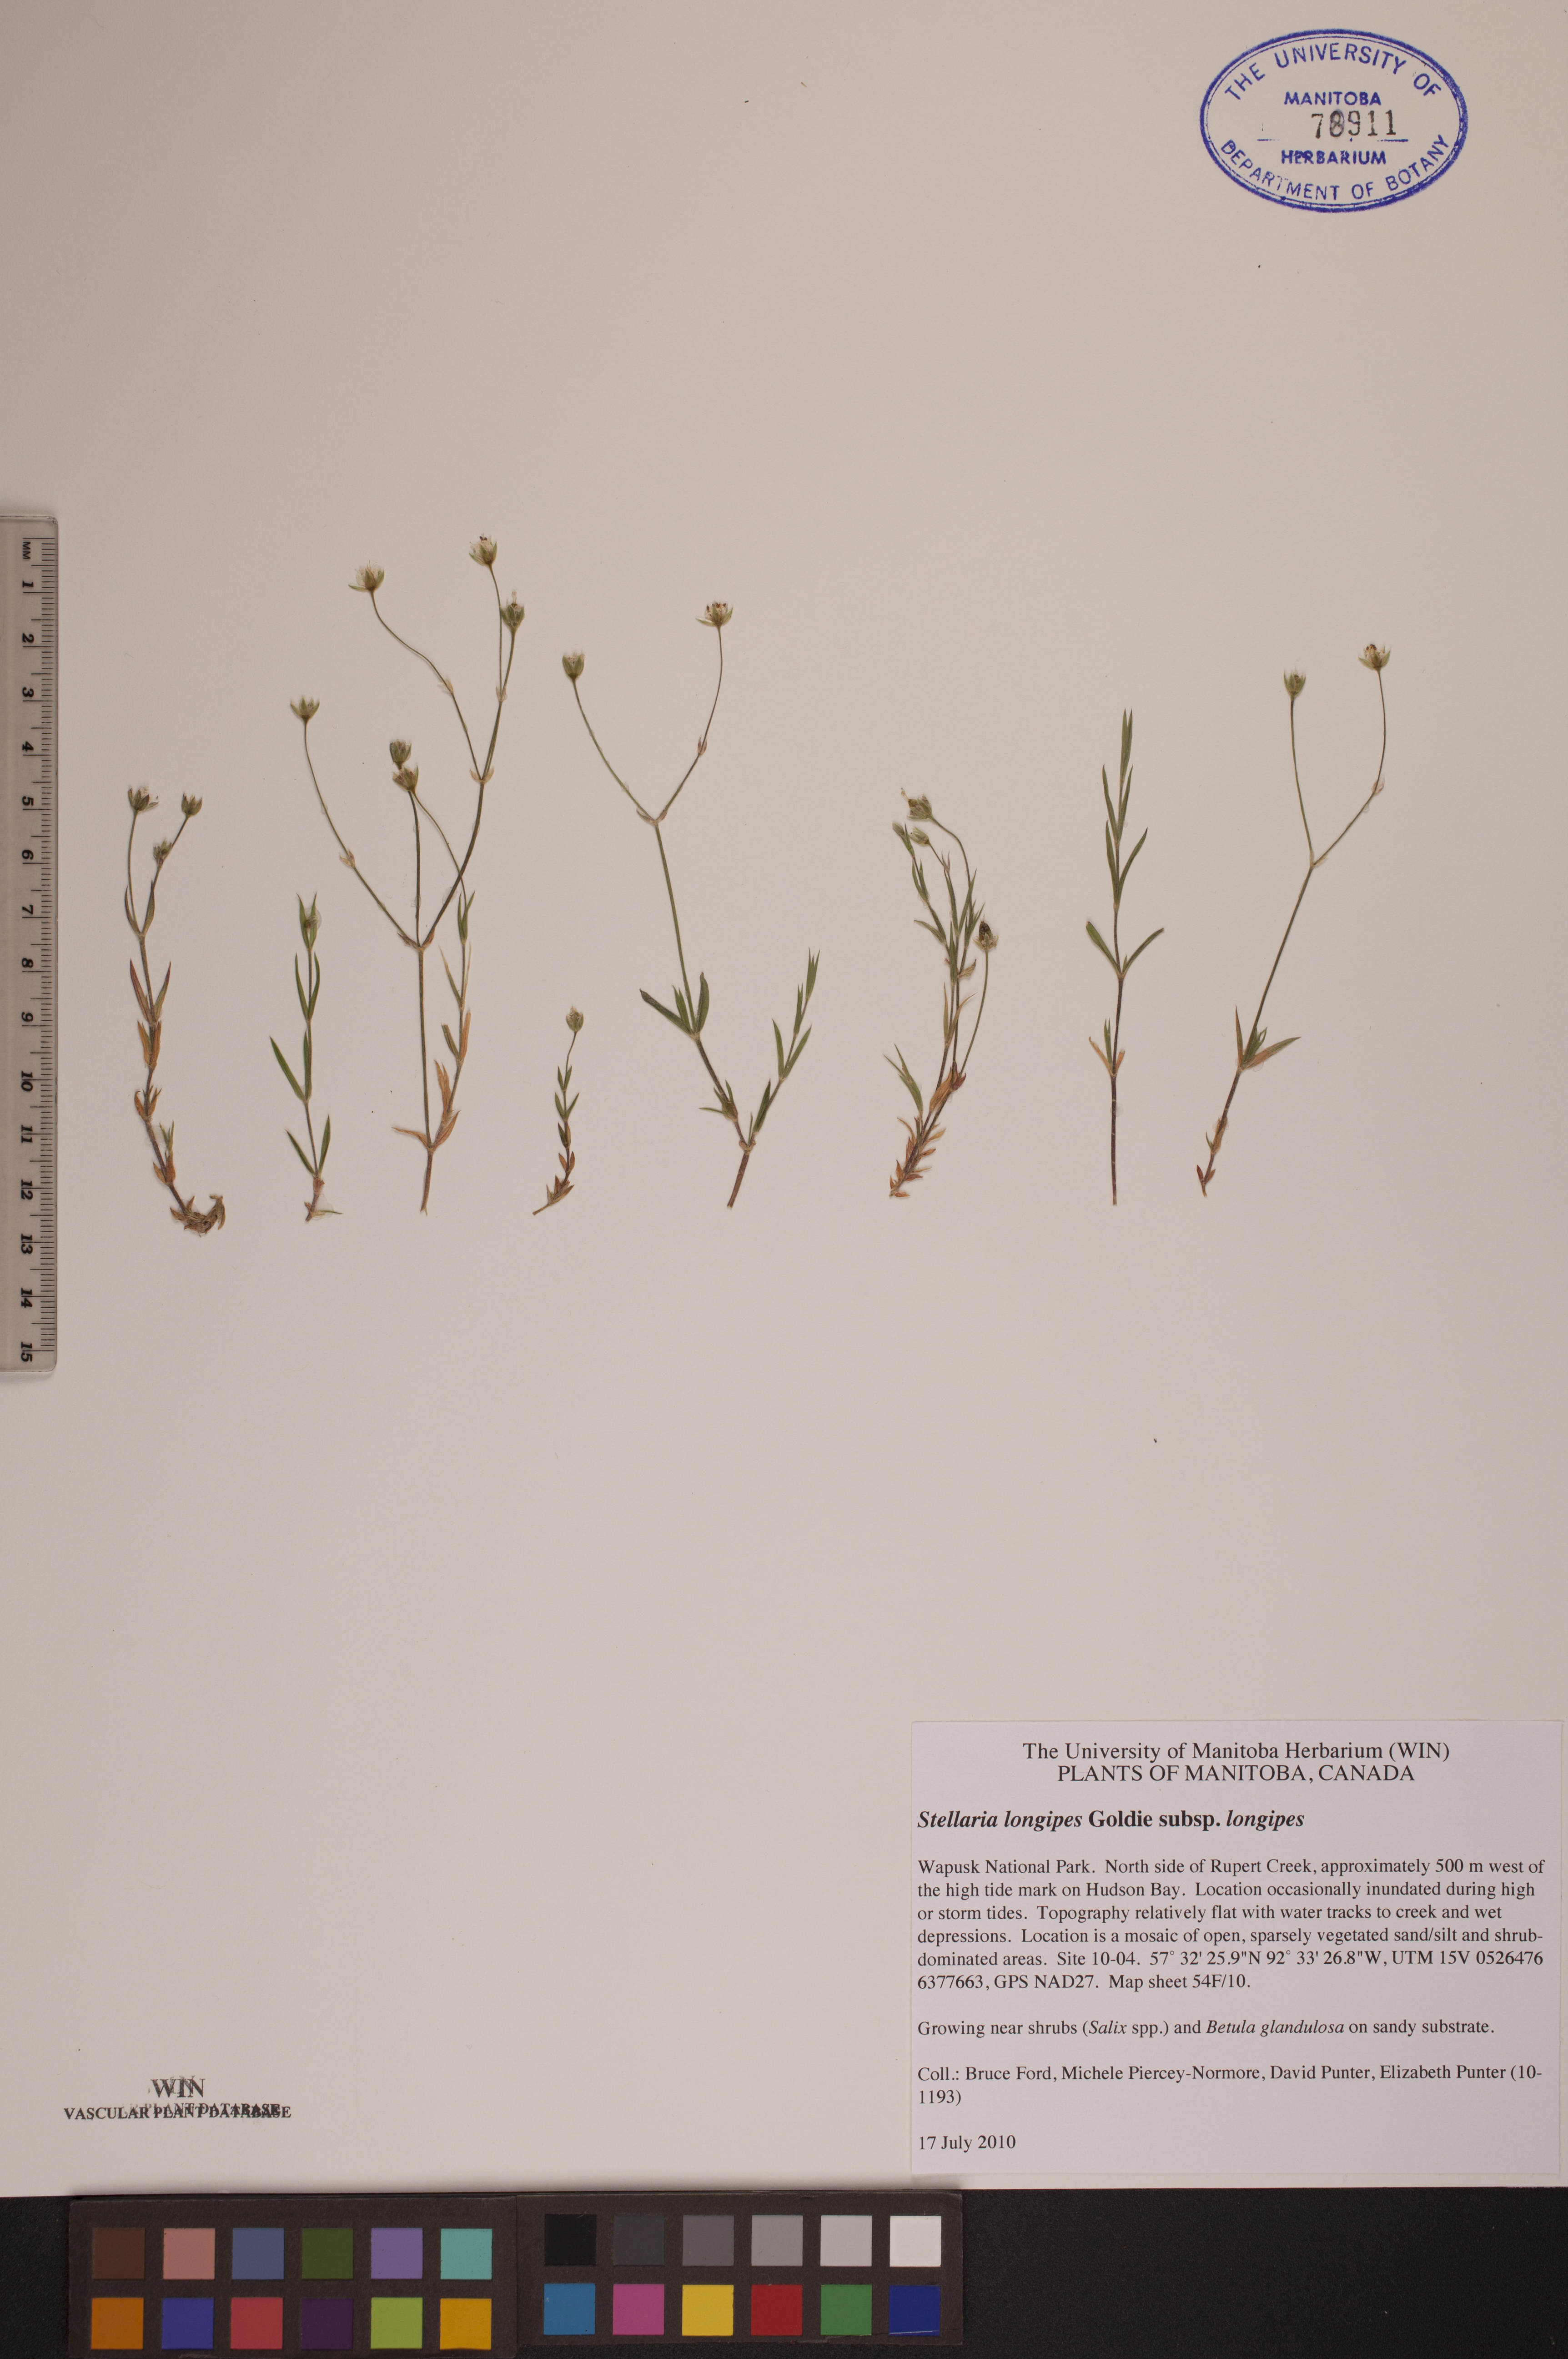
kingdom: Plantae
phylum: Tracheophyta
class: Magnoliopsida
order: Caryophyllales
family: Caryophyllaceae
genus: Stellaria
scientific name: Stellaria longipes
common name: Goldie's starwort
